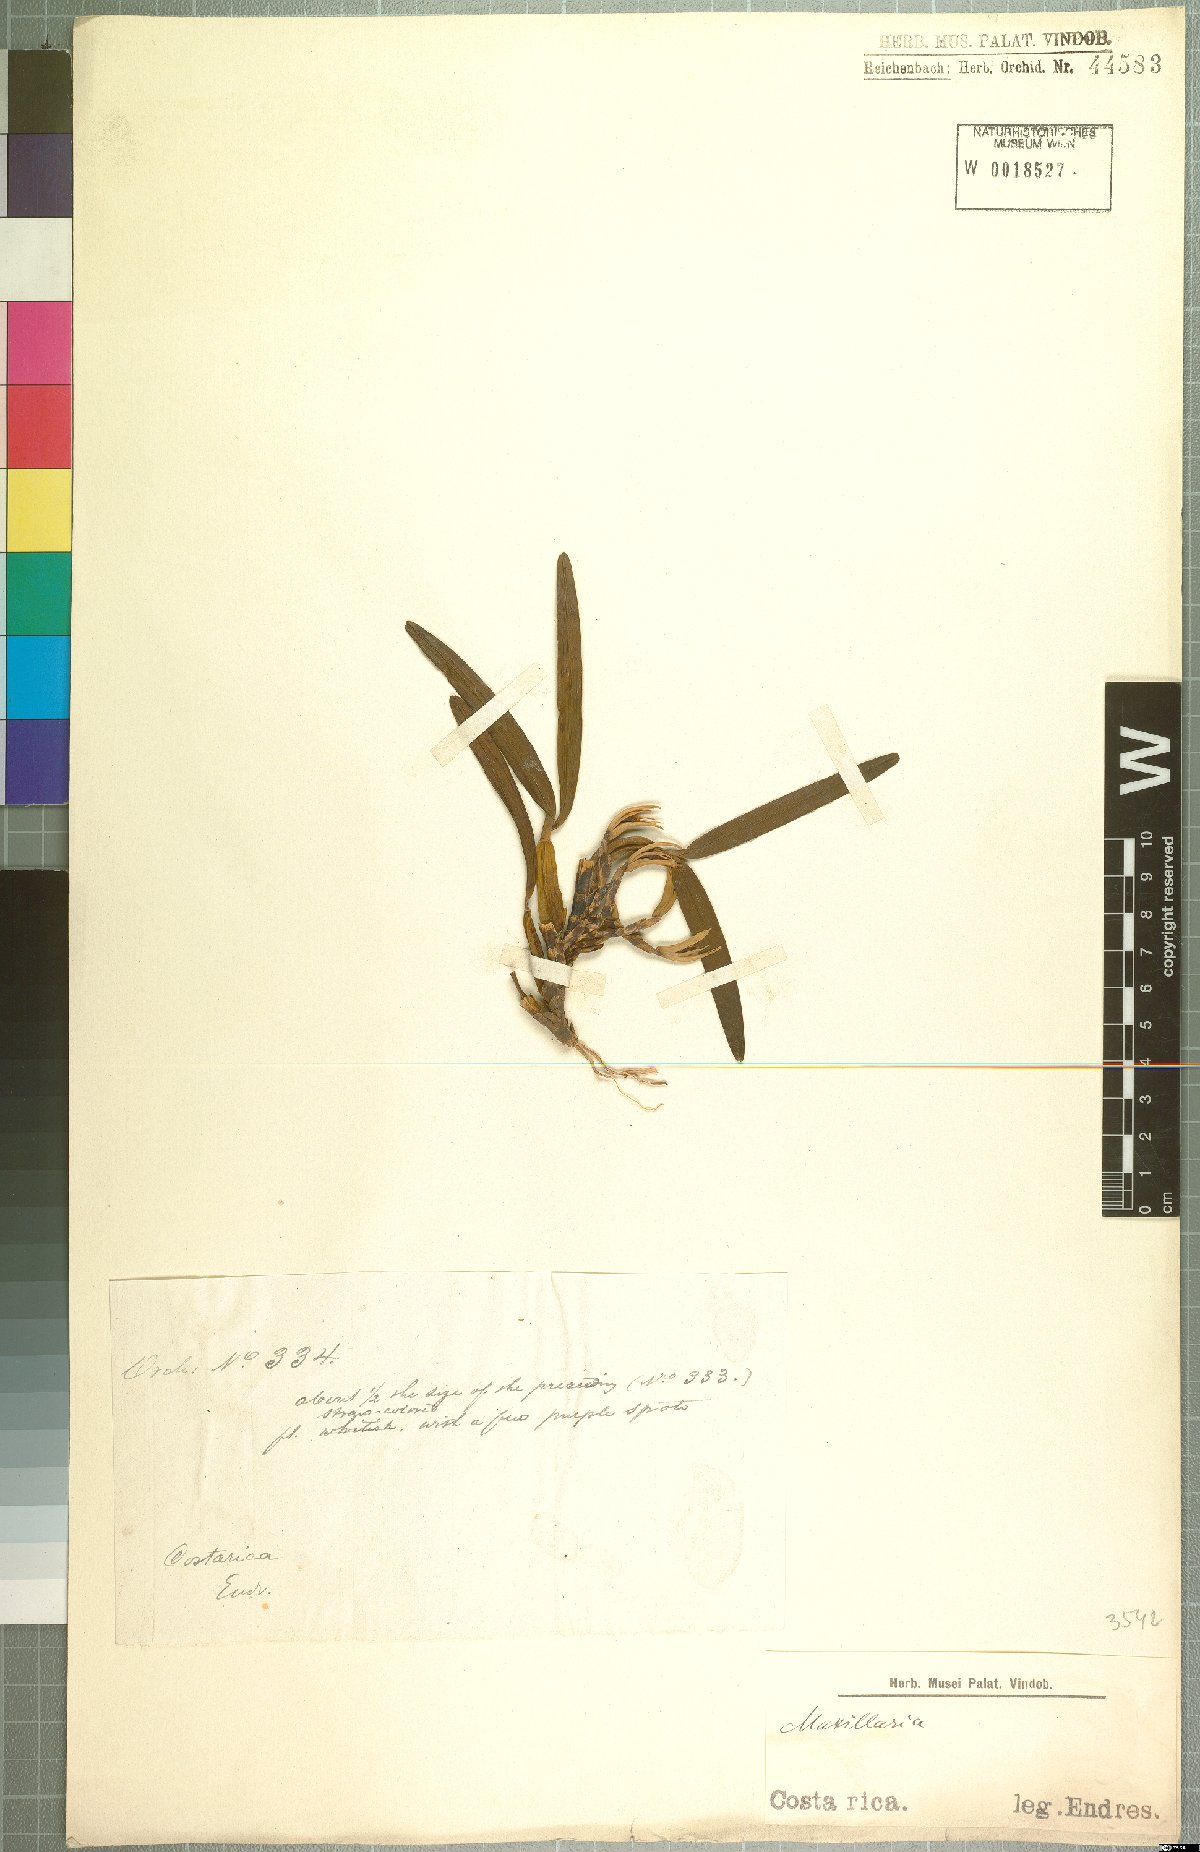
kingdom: Plantae
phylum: Tracheophyta
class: Liliopsida
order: Asparagales
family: Orchidaceae
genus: Maxillaria
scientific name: Maxillaria
